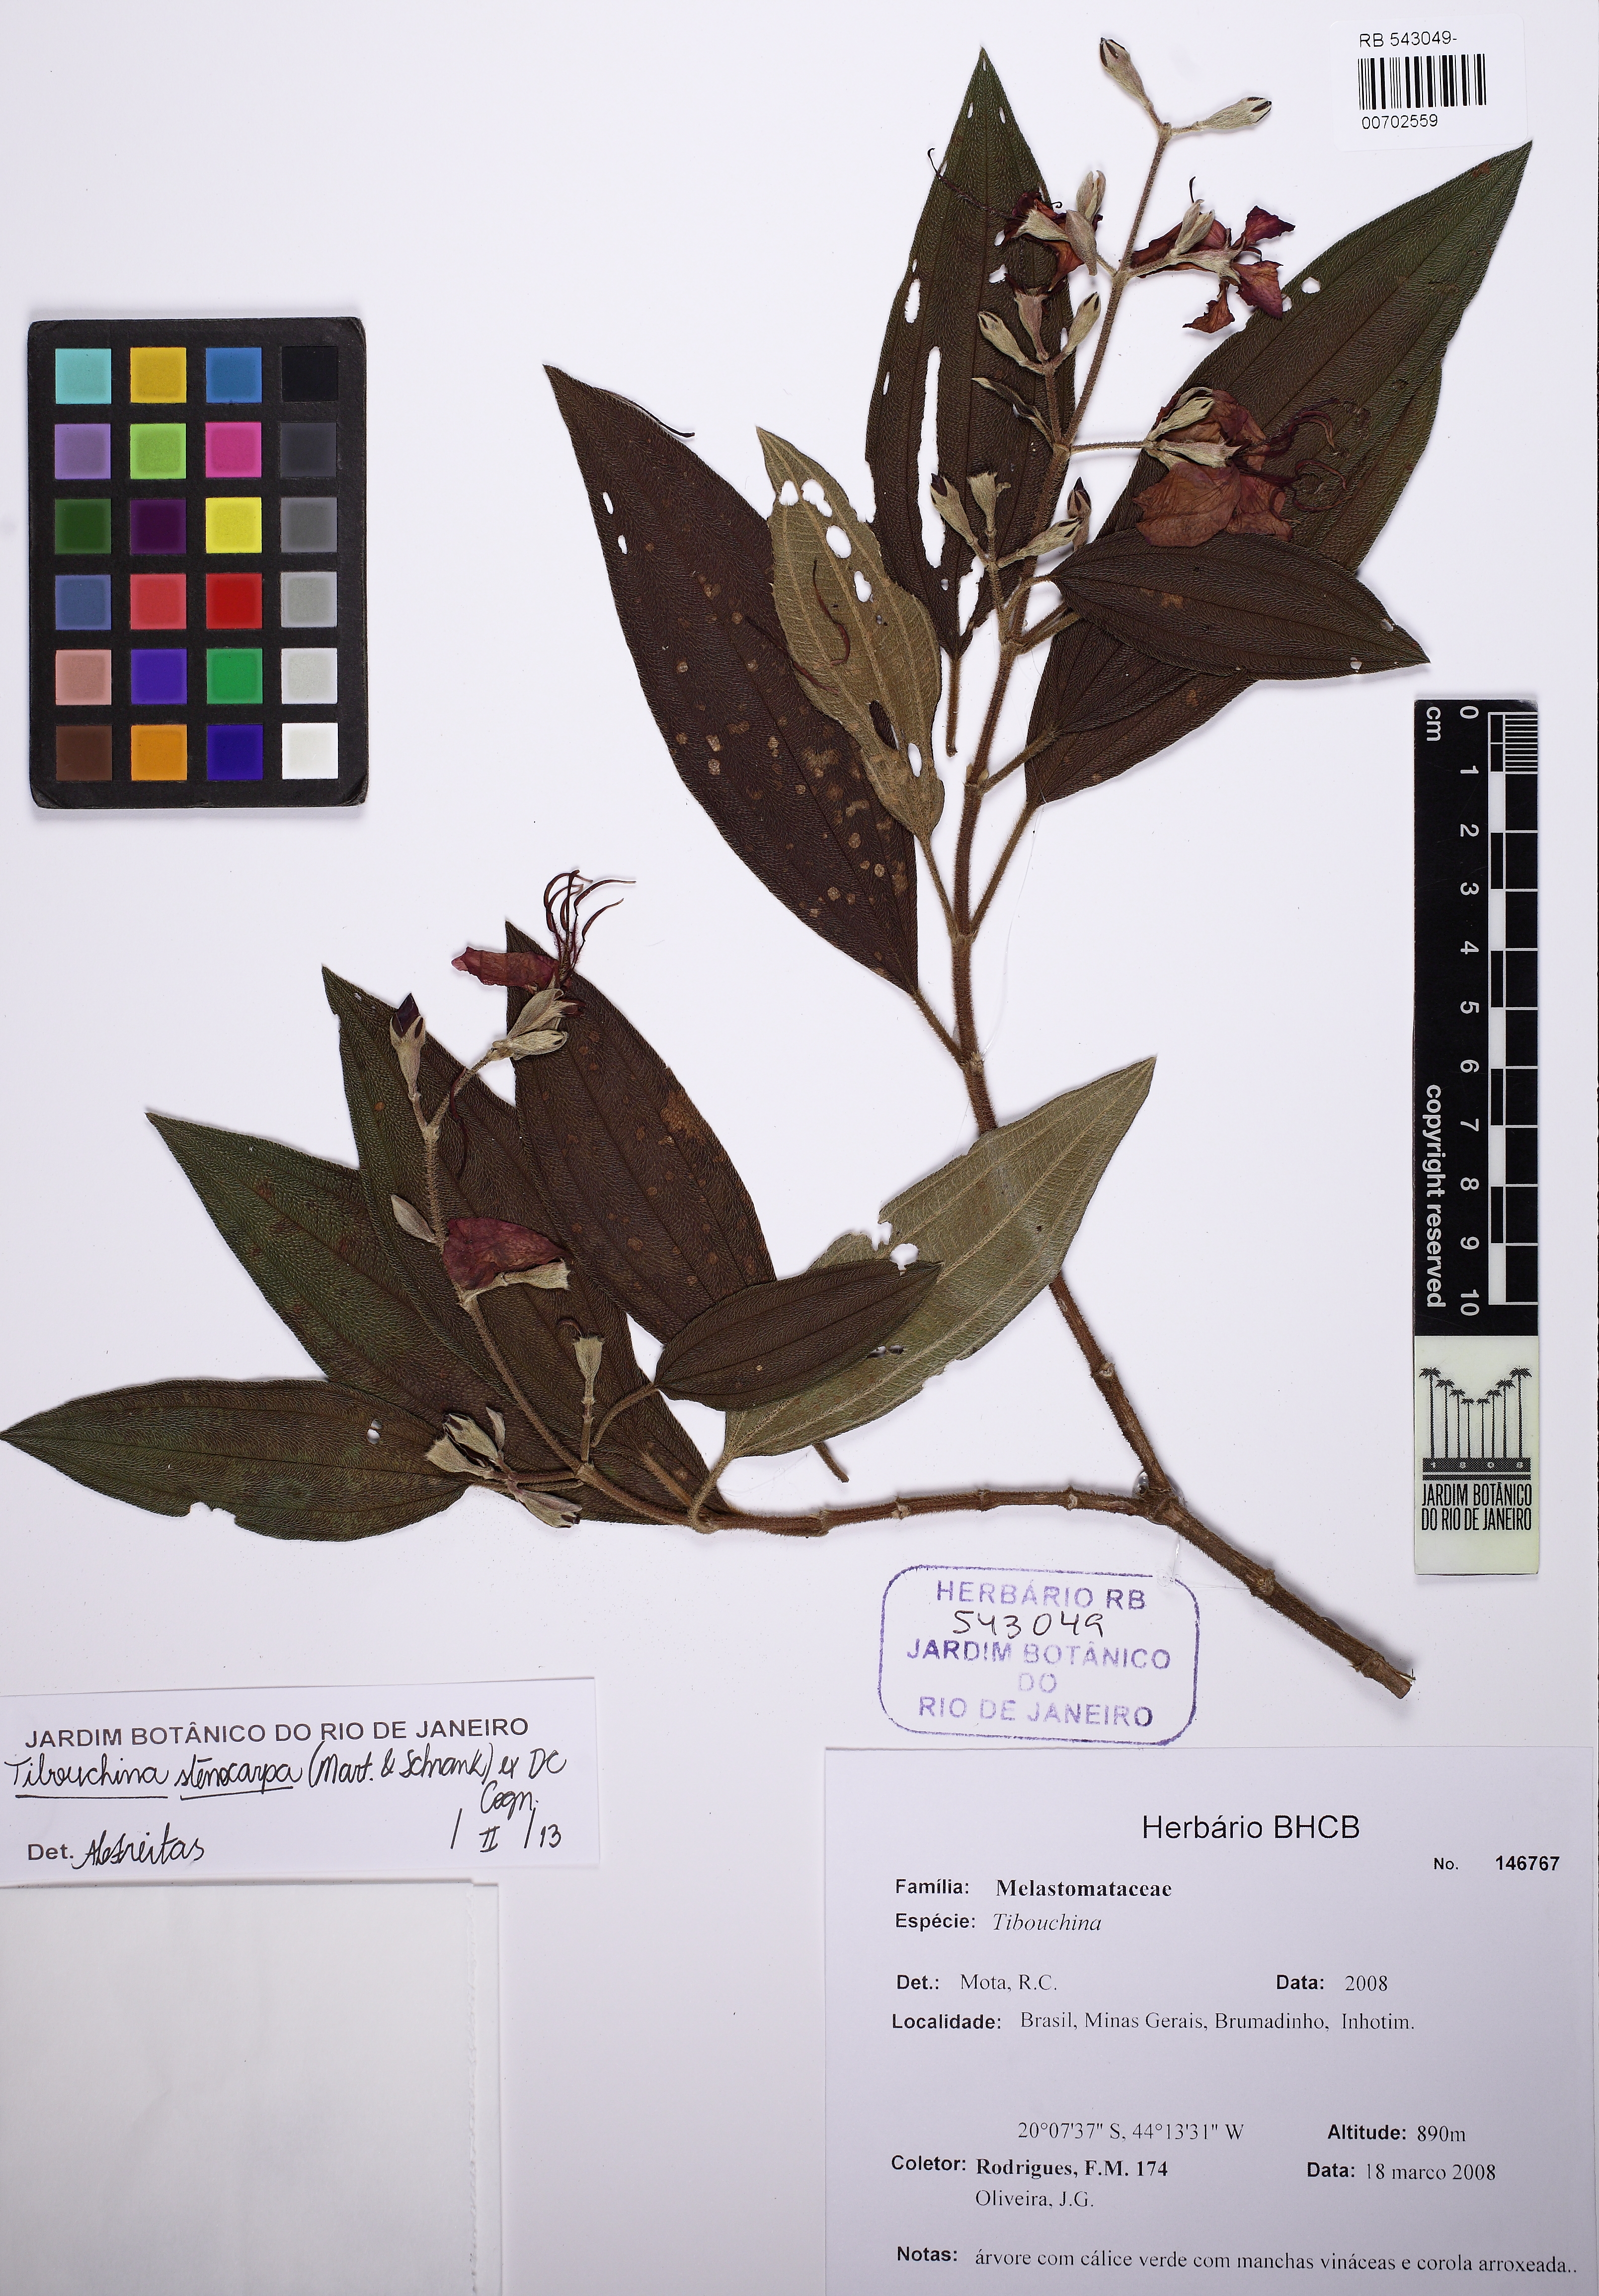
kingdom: Plantae
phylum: Tracheophyta
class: Magnoliopsida
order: Myrtales
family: Melastomataceae
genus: Pleroma
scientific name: Pleroma stenocarpum
